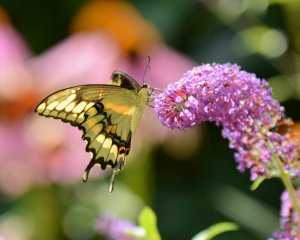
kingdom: Animalia
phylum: Arthropoda
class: Insecta
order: Lepidoptera
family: Papilionidae
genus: Papilio
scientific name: Papilio cresphontes
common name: Eastern Giant Swallowtail
